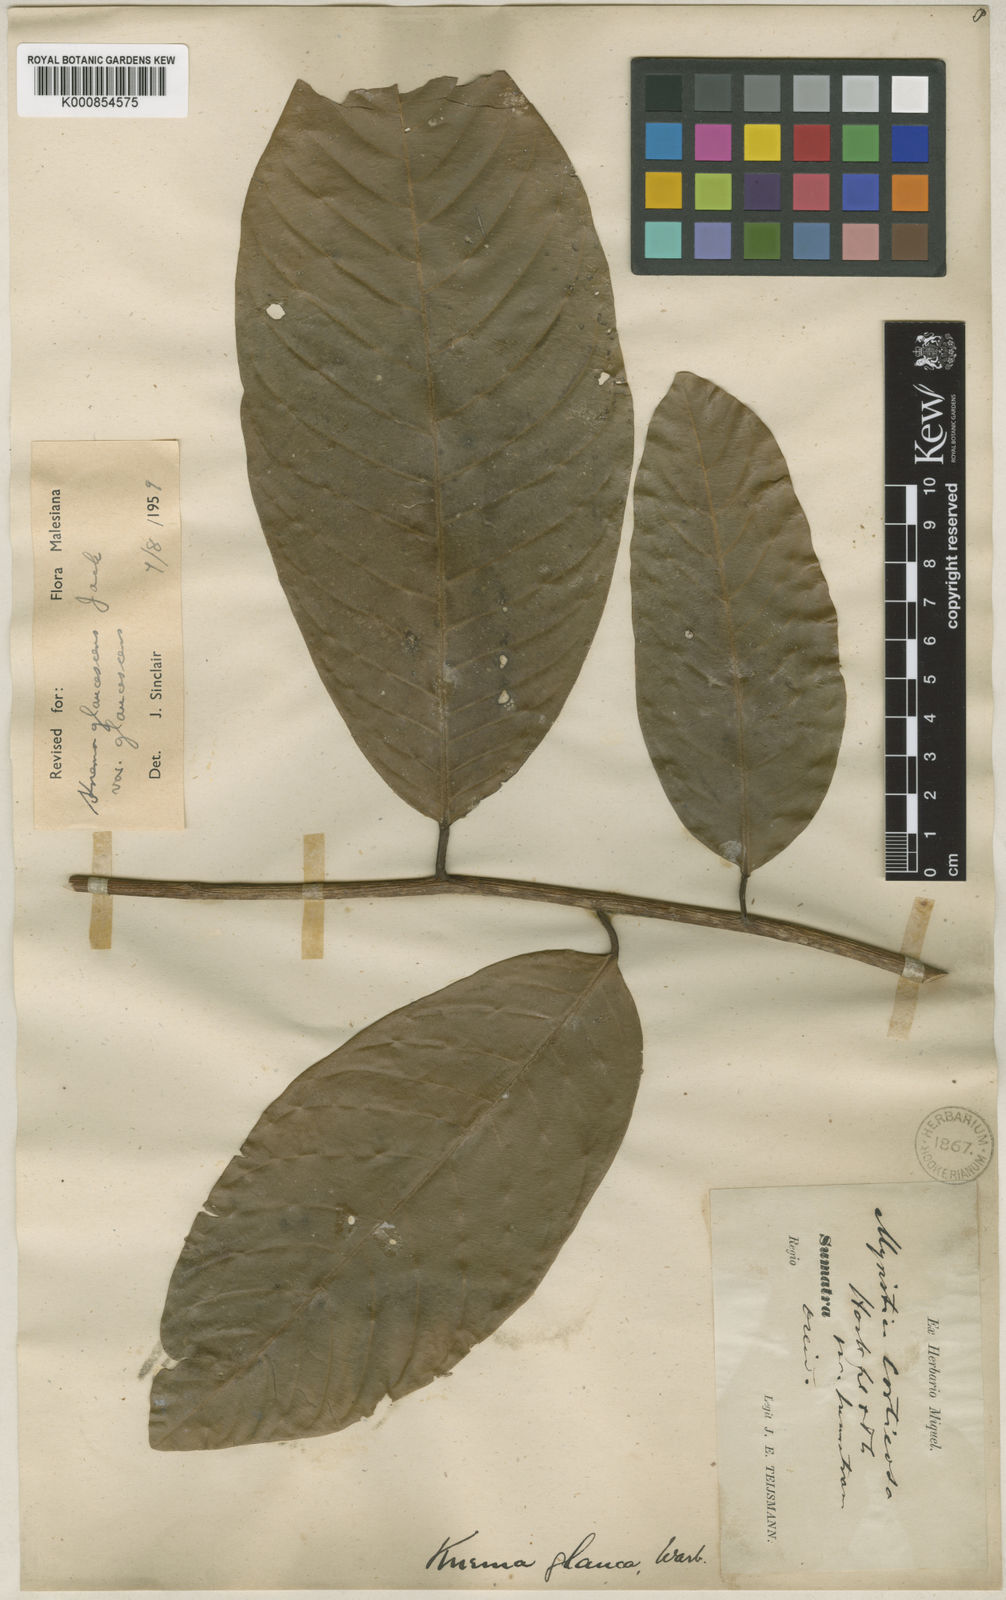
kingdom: Plantae
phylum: Tracheophyta
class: Magnoliopsida
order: Magnoliales
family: Myristicaceae
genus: Knema
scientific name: Knema glaucescens
